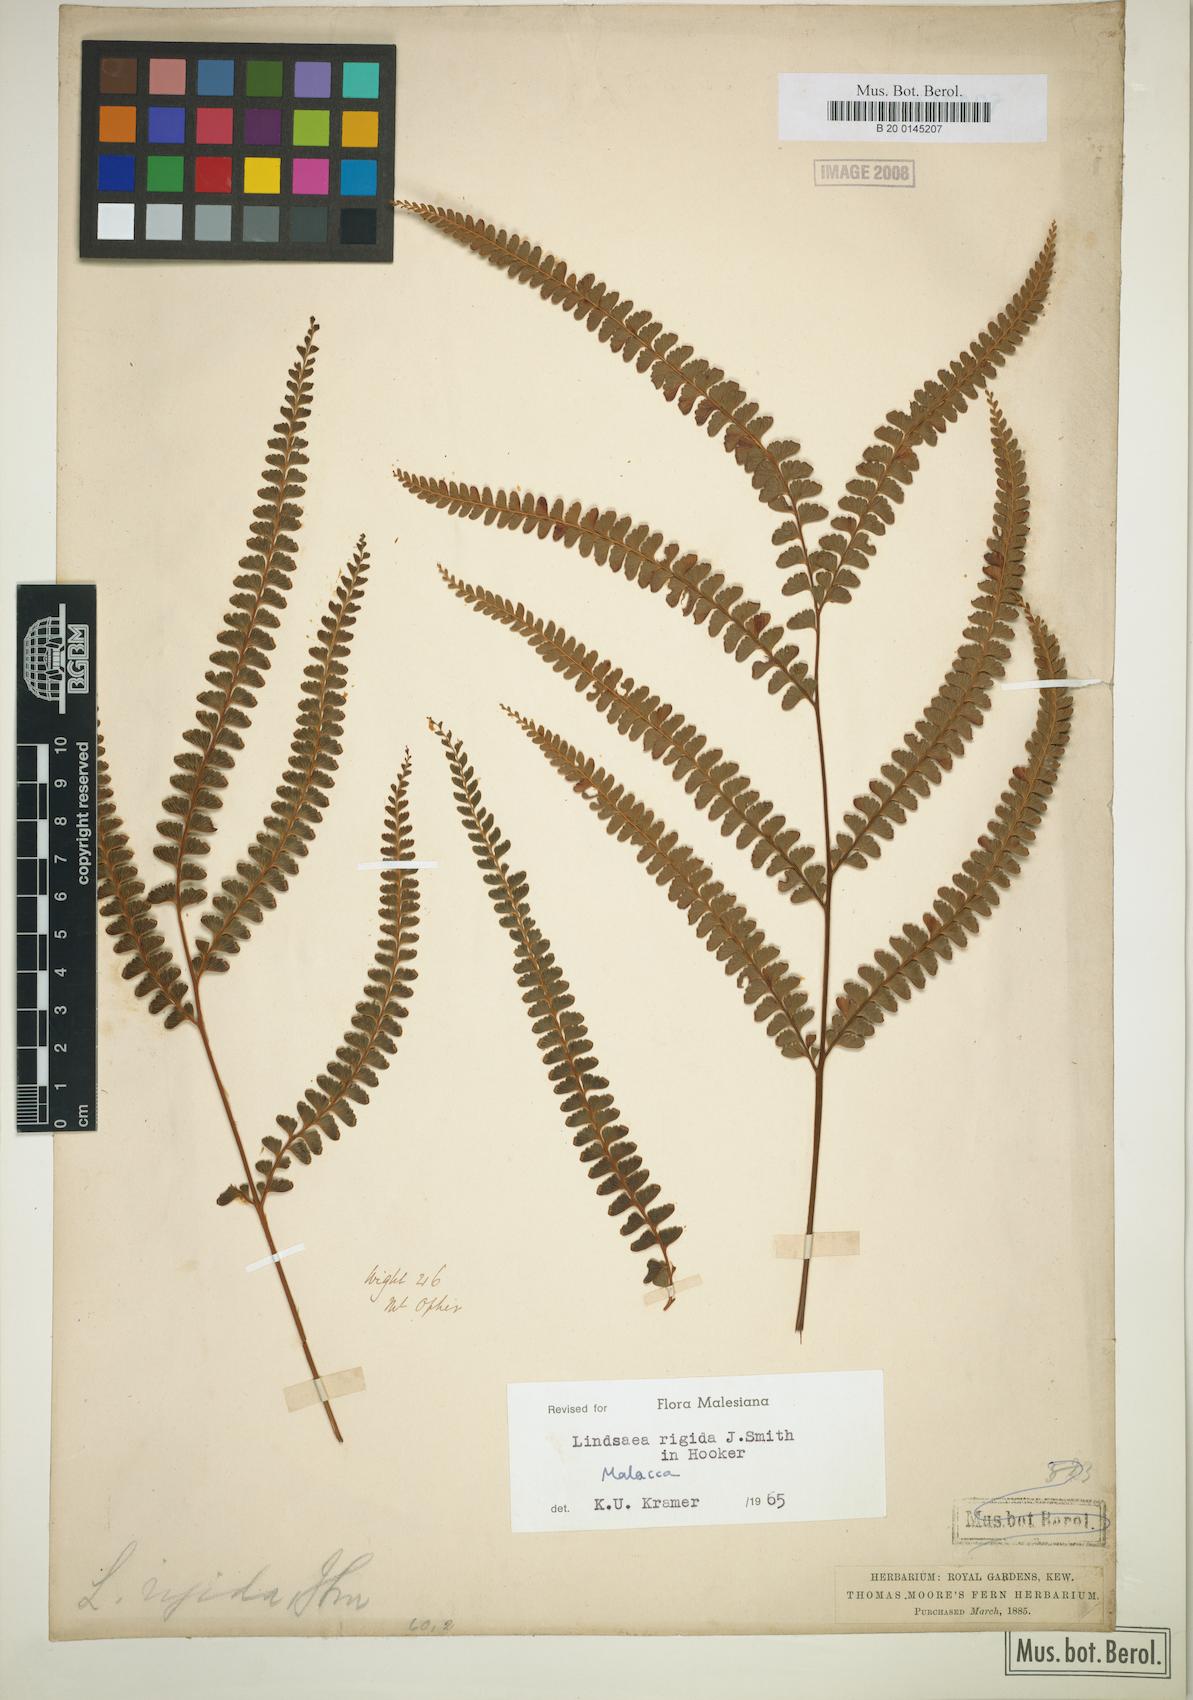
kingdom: Plantae
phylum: Tracheophyta
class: Polypodiopsida
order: Polypodiales
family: Lindsaeaceae
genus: Lindsaea
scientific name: Lindsaea rigida
